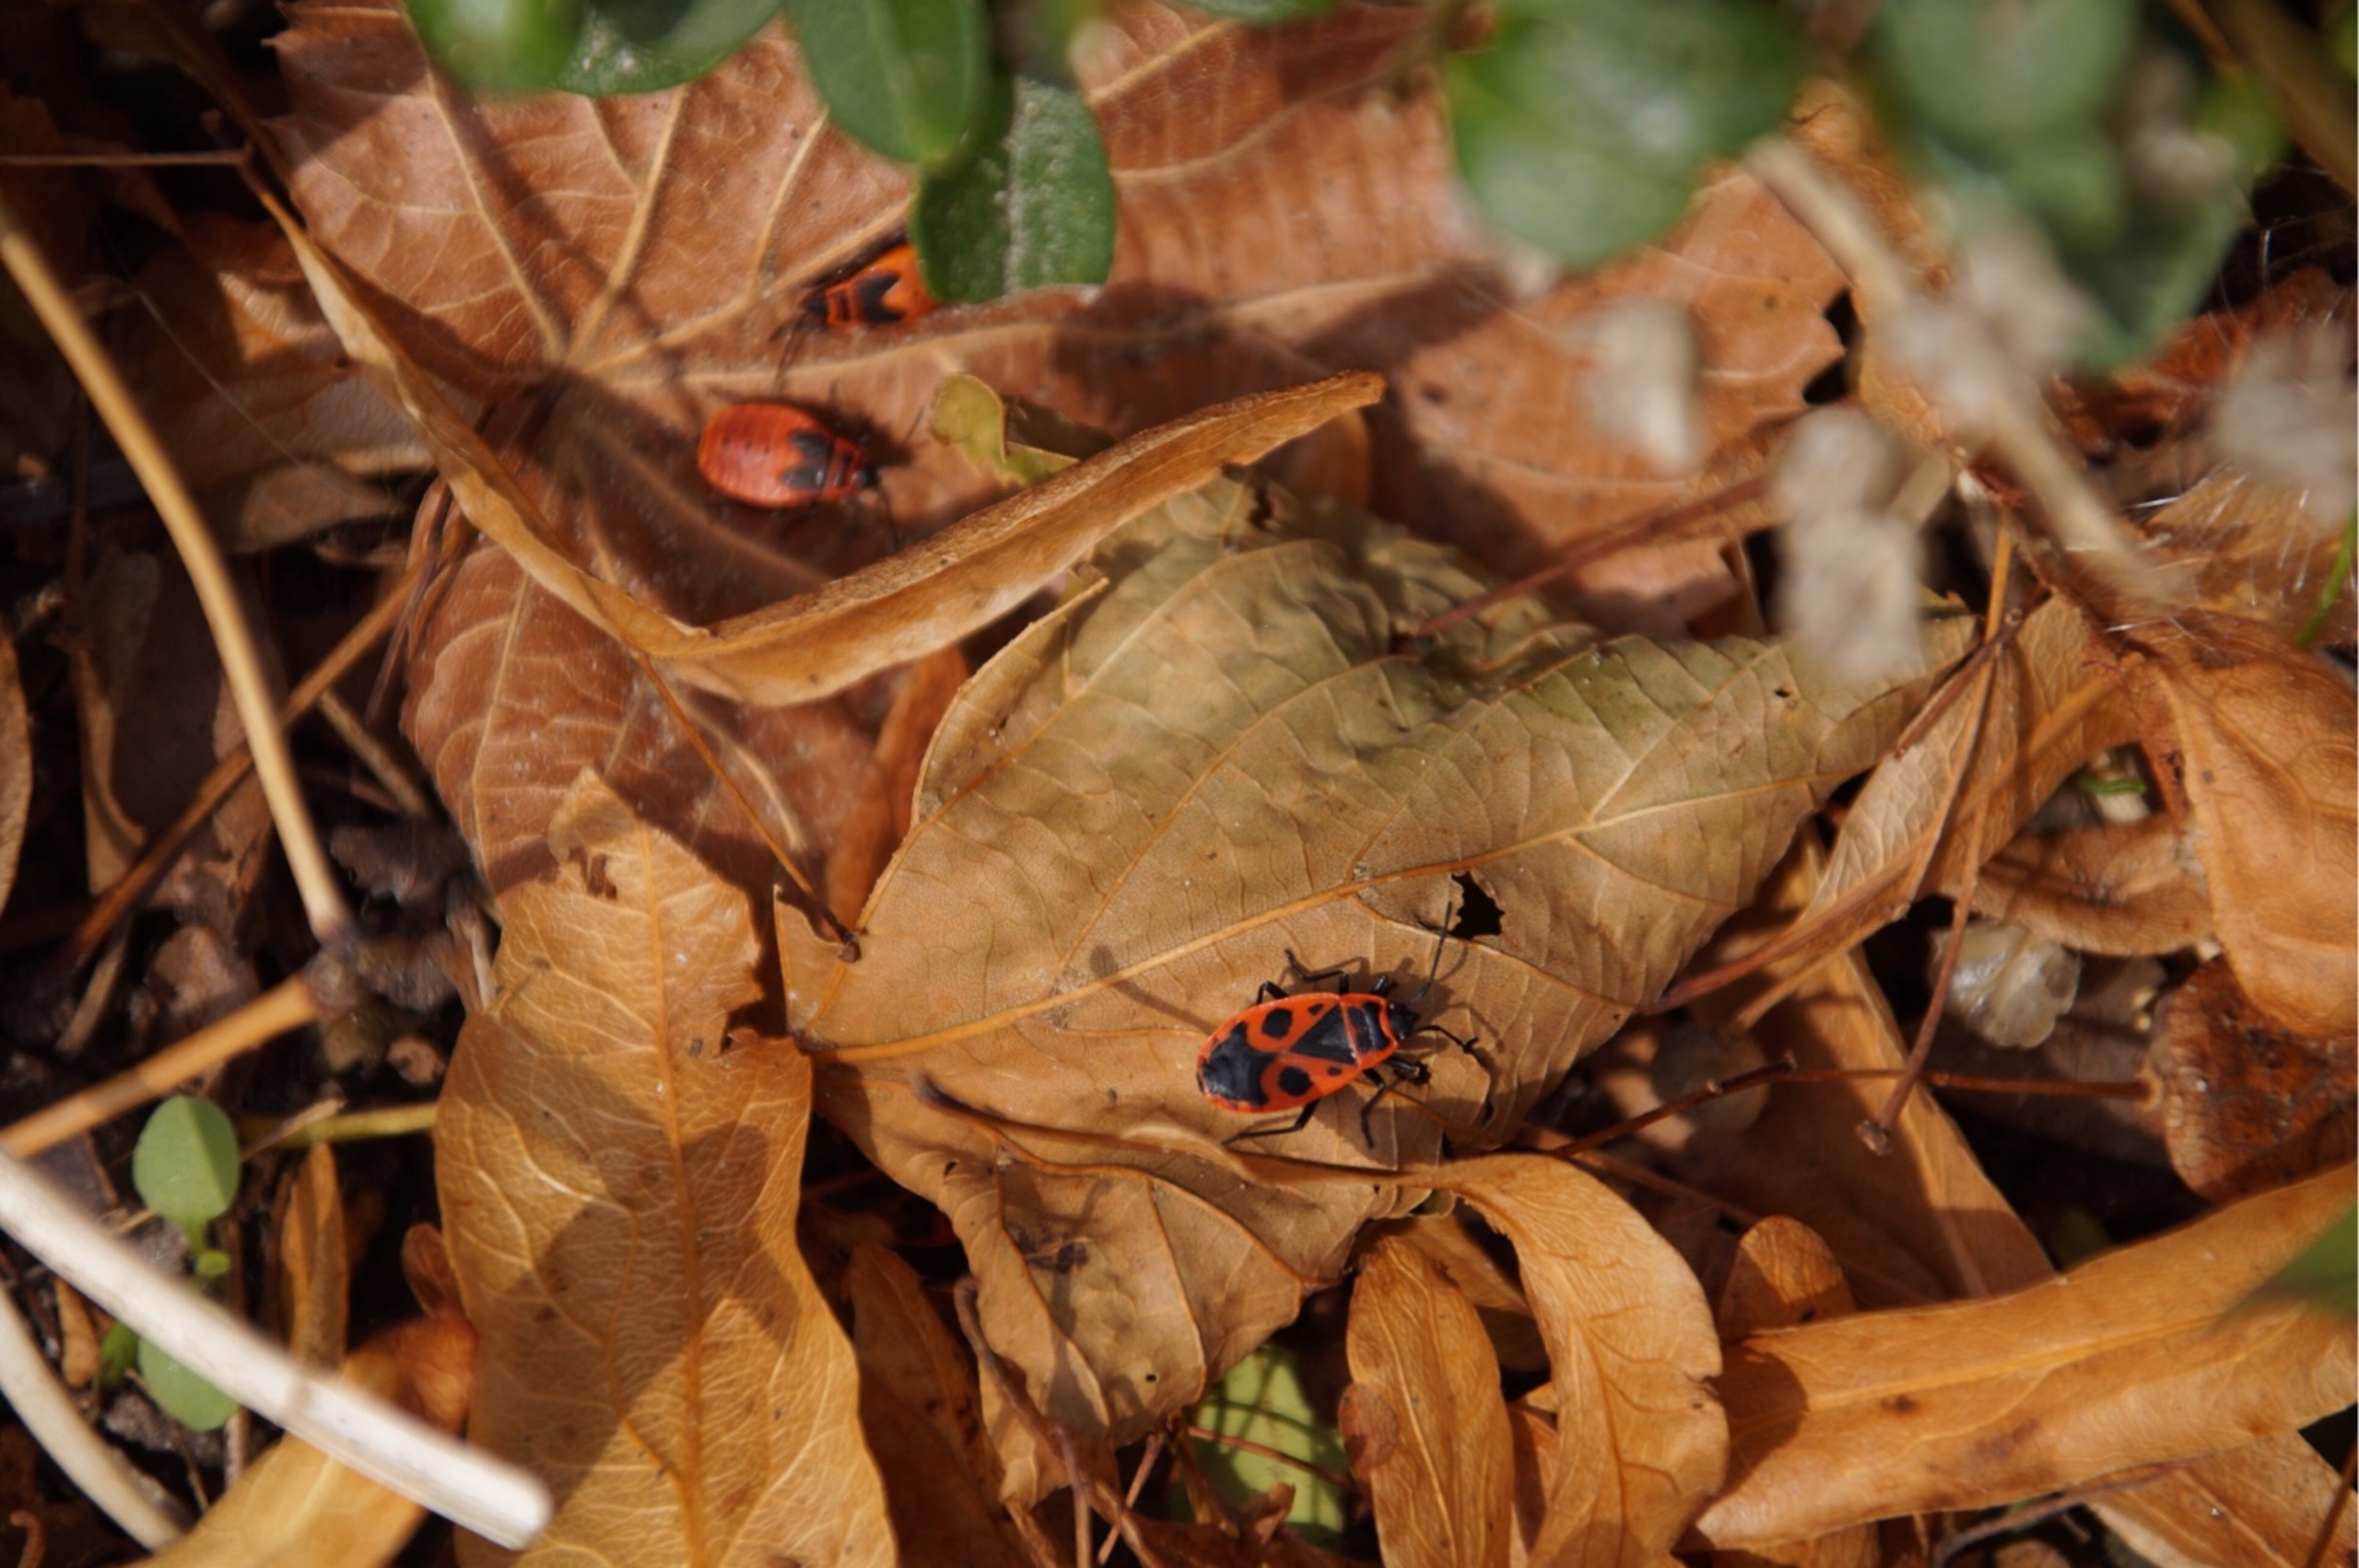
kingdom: Animalia
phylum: Arthropoda
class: Insecta
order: Hemiptera
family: Pyrrhocoridae
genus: Pyrrhocoris
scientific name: Pyrrhocoris apterus
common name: Ildtæge
